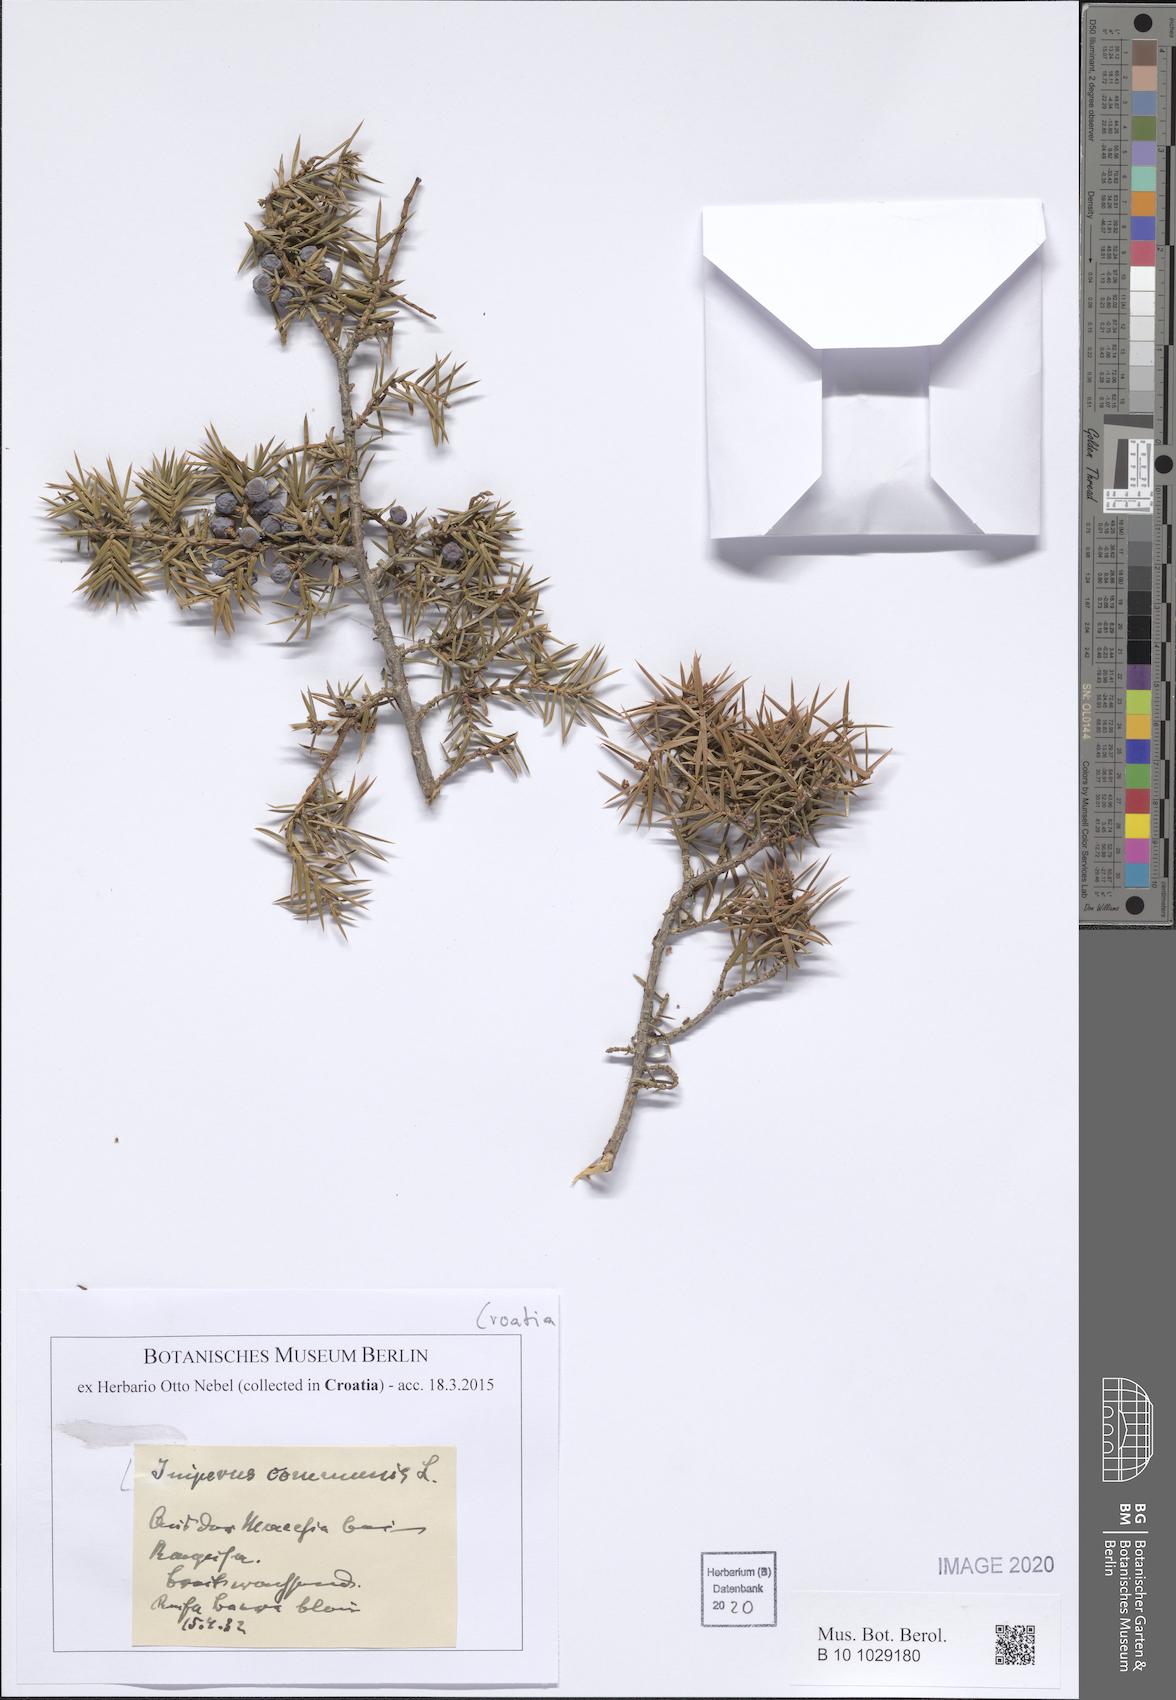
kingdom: Plantae
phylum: Tracheophyta
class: Pinopsida
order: Pinales
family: Cupressaceae
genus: Juniperus
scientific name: Juniperus communis
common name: Common juniper
